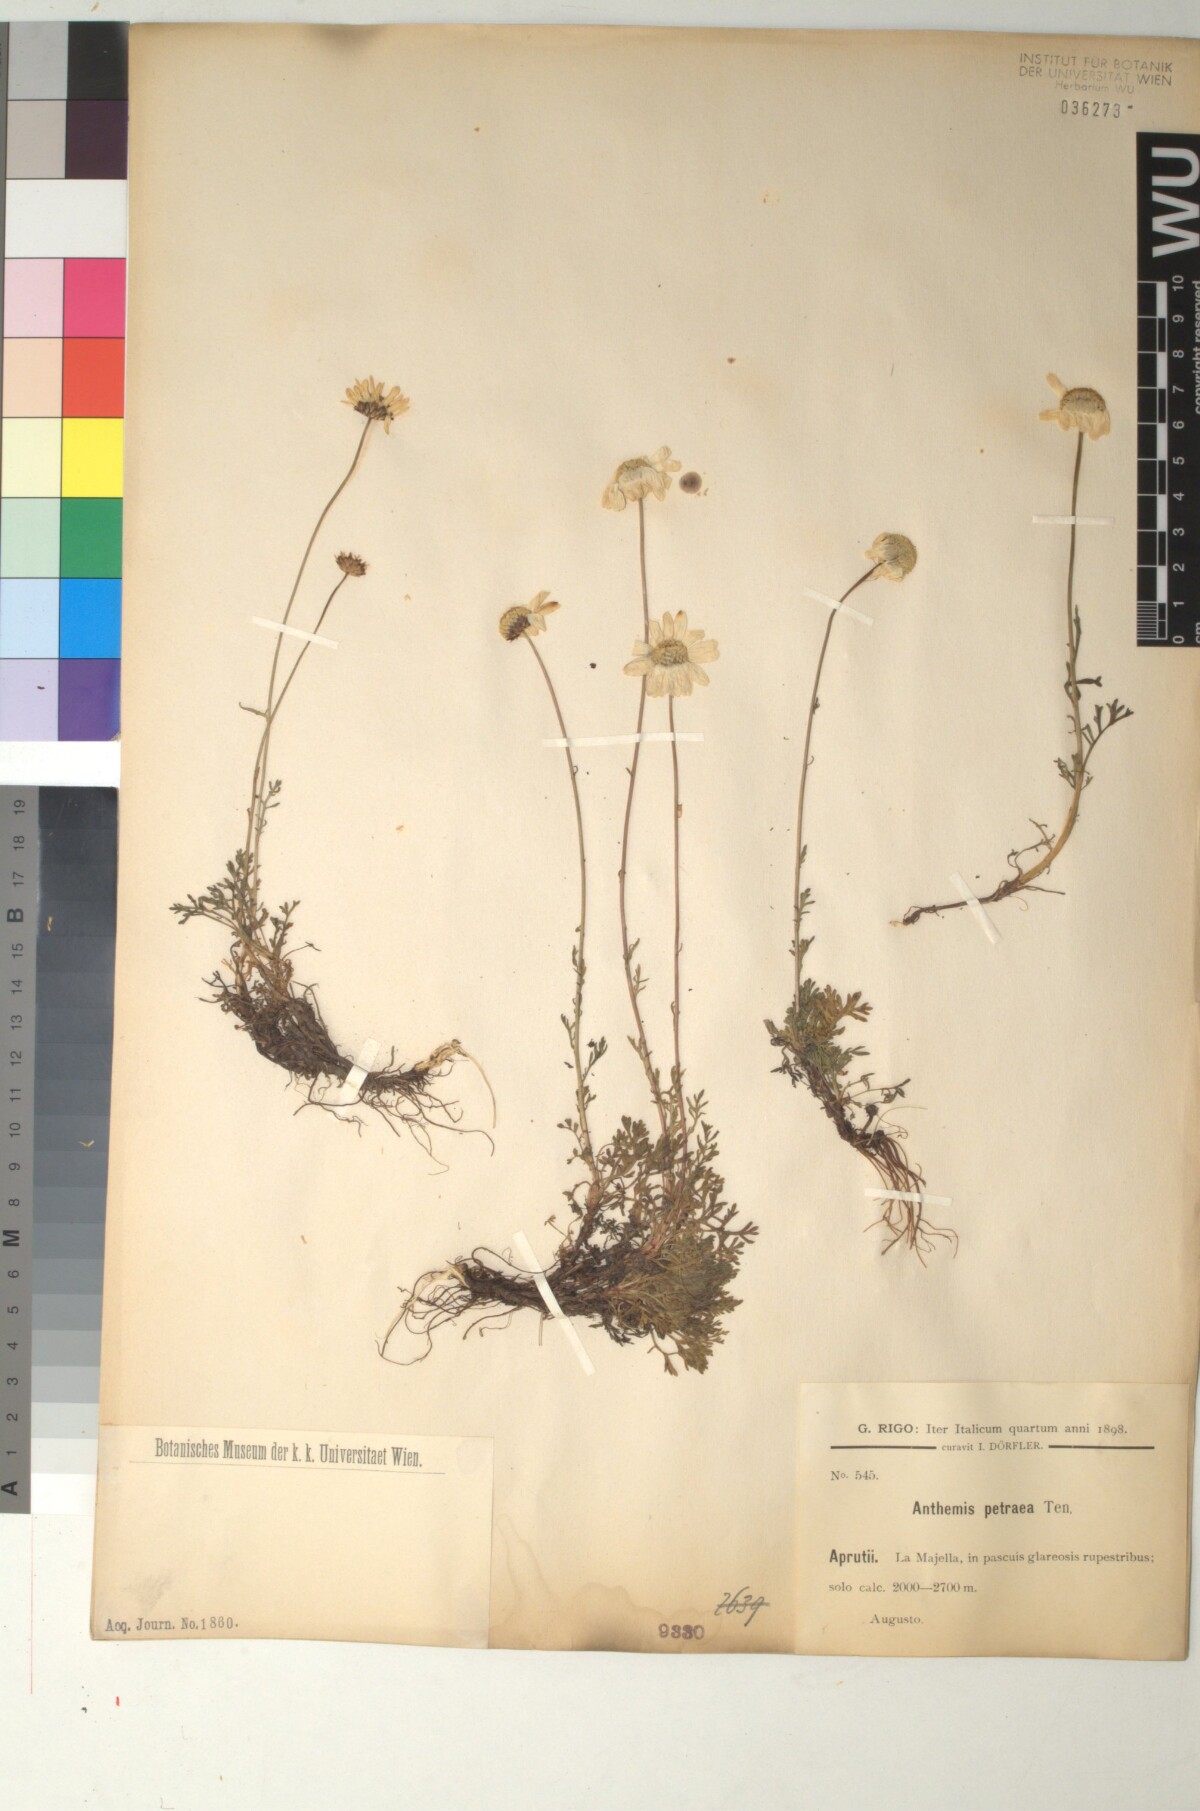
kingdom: Plantae
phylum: Tracheophyta
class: Magnoliopsida
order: Asterales
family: Asteraceae
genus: Anthemis
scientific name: Anthemis cretica
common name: Mountain dog-daisy
